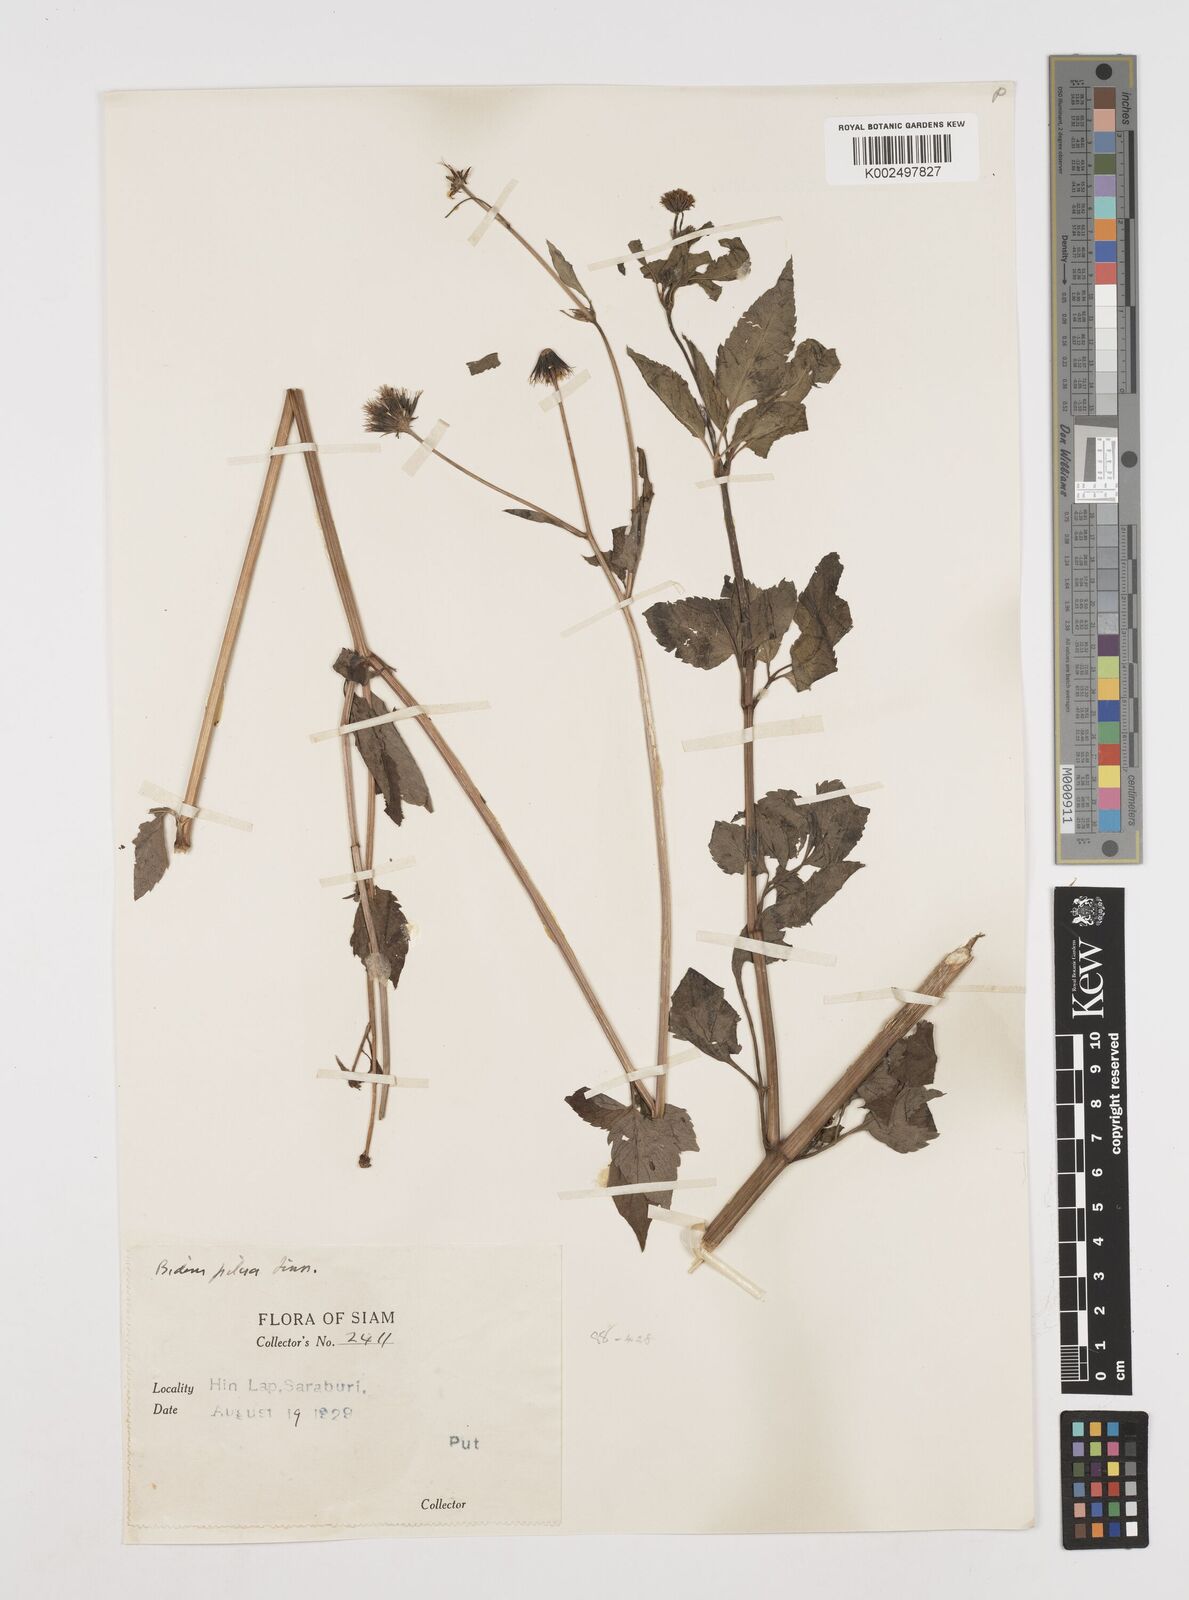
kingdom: Plantae
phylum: Tracheophyta
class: Magnoliopsida
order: Asterales
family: Asteraceae
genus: Bidens
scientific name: Bidens pilosa
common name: Black-jack
